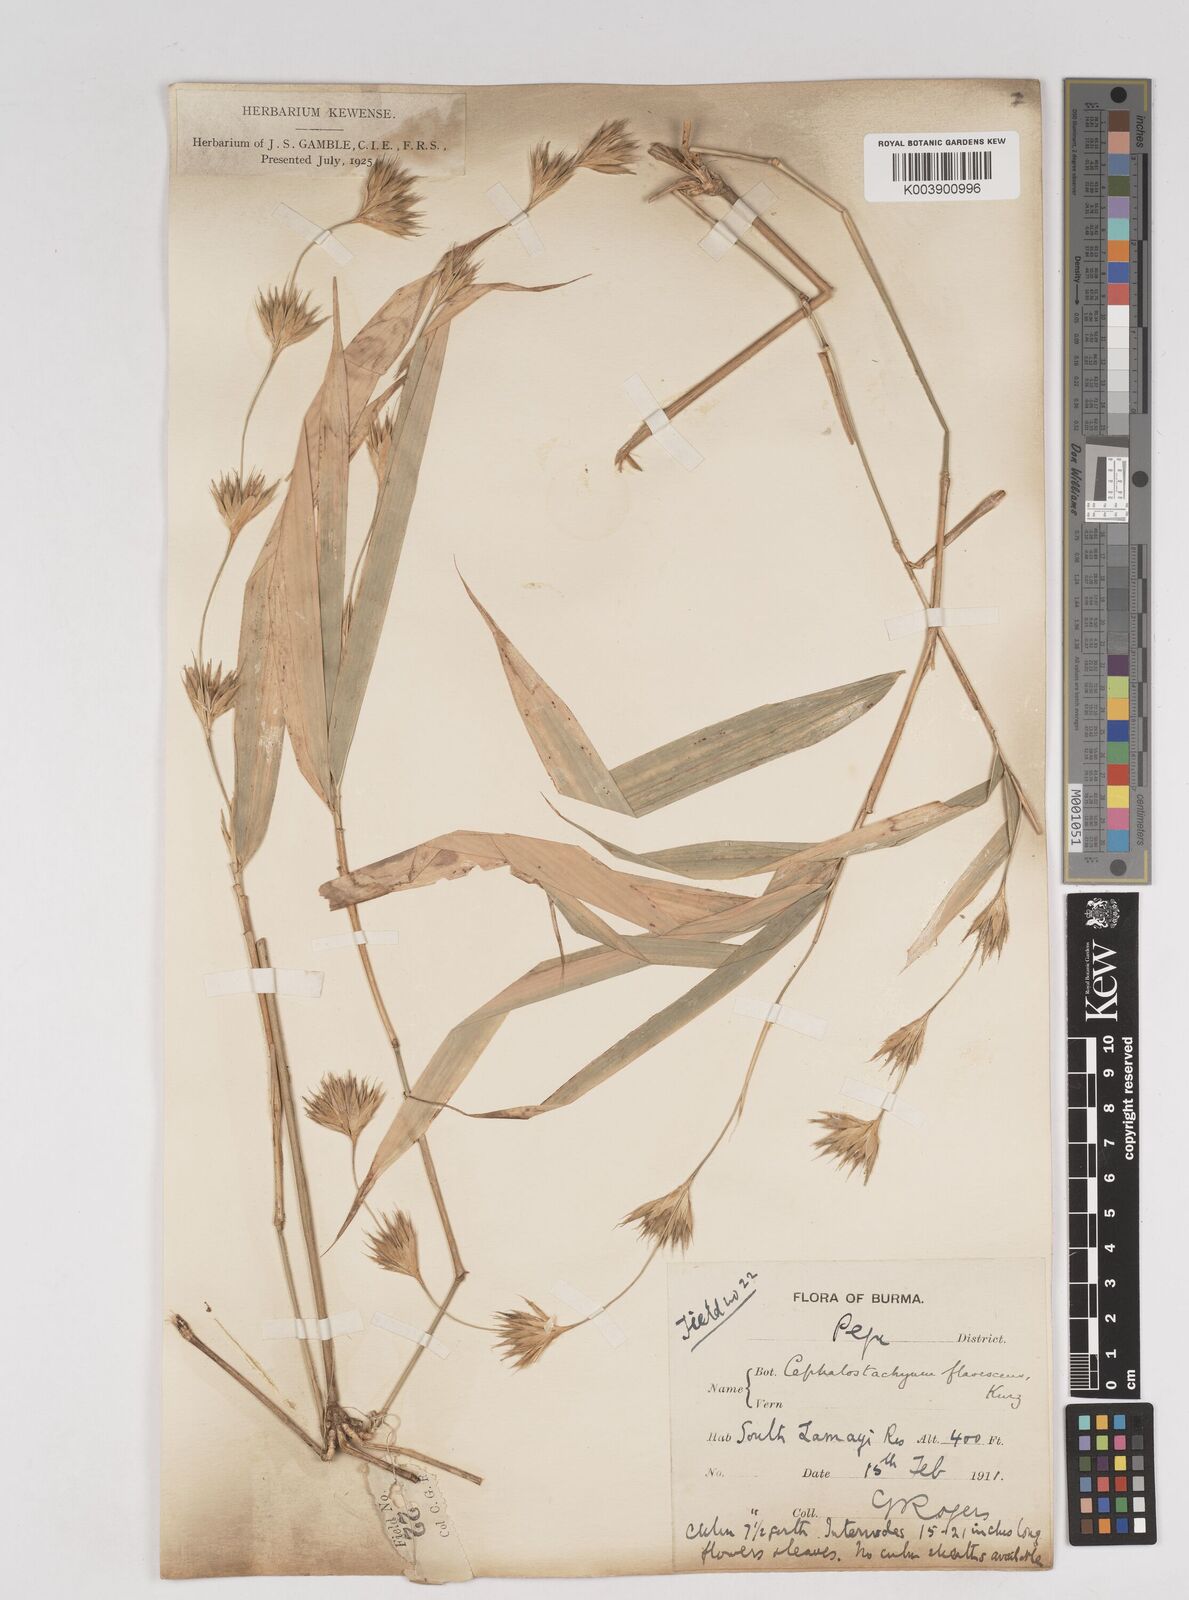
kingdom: Plantae
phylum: Tracheophyta
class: Liliopsida
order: Poales
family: Poaceae
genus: Cephalostachyum
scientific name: Cephalostachyum flavescens
